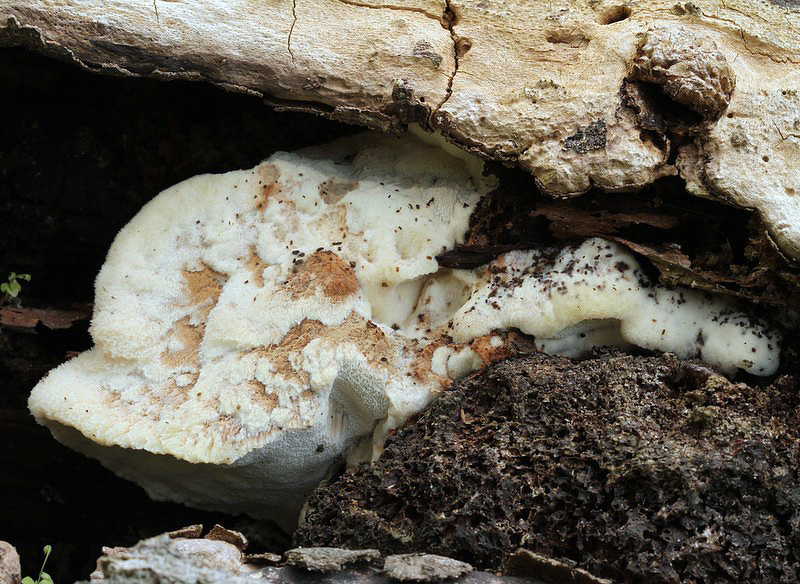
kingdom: Fungi
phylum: Basidiomycota
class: Agaricomycetes
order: Polyporales
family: Meruliaceae
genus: Pappia
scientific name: Pappia fissilis
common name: rosa fedtporesvamp
